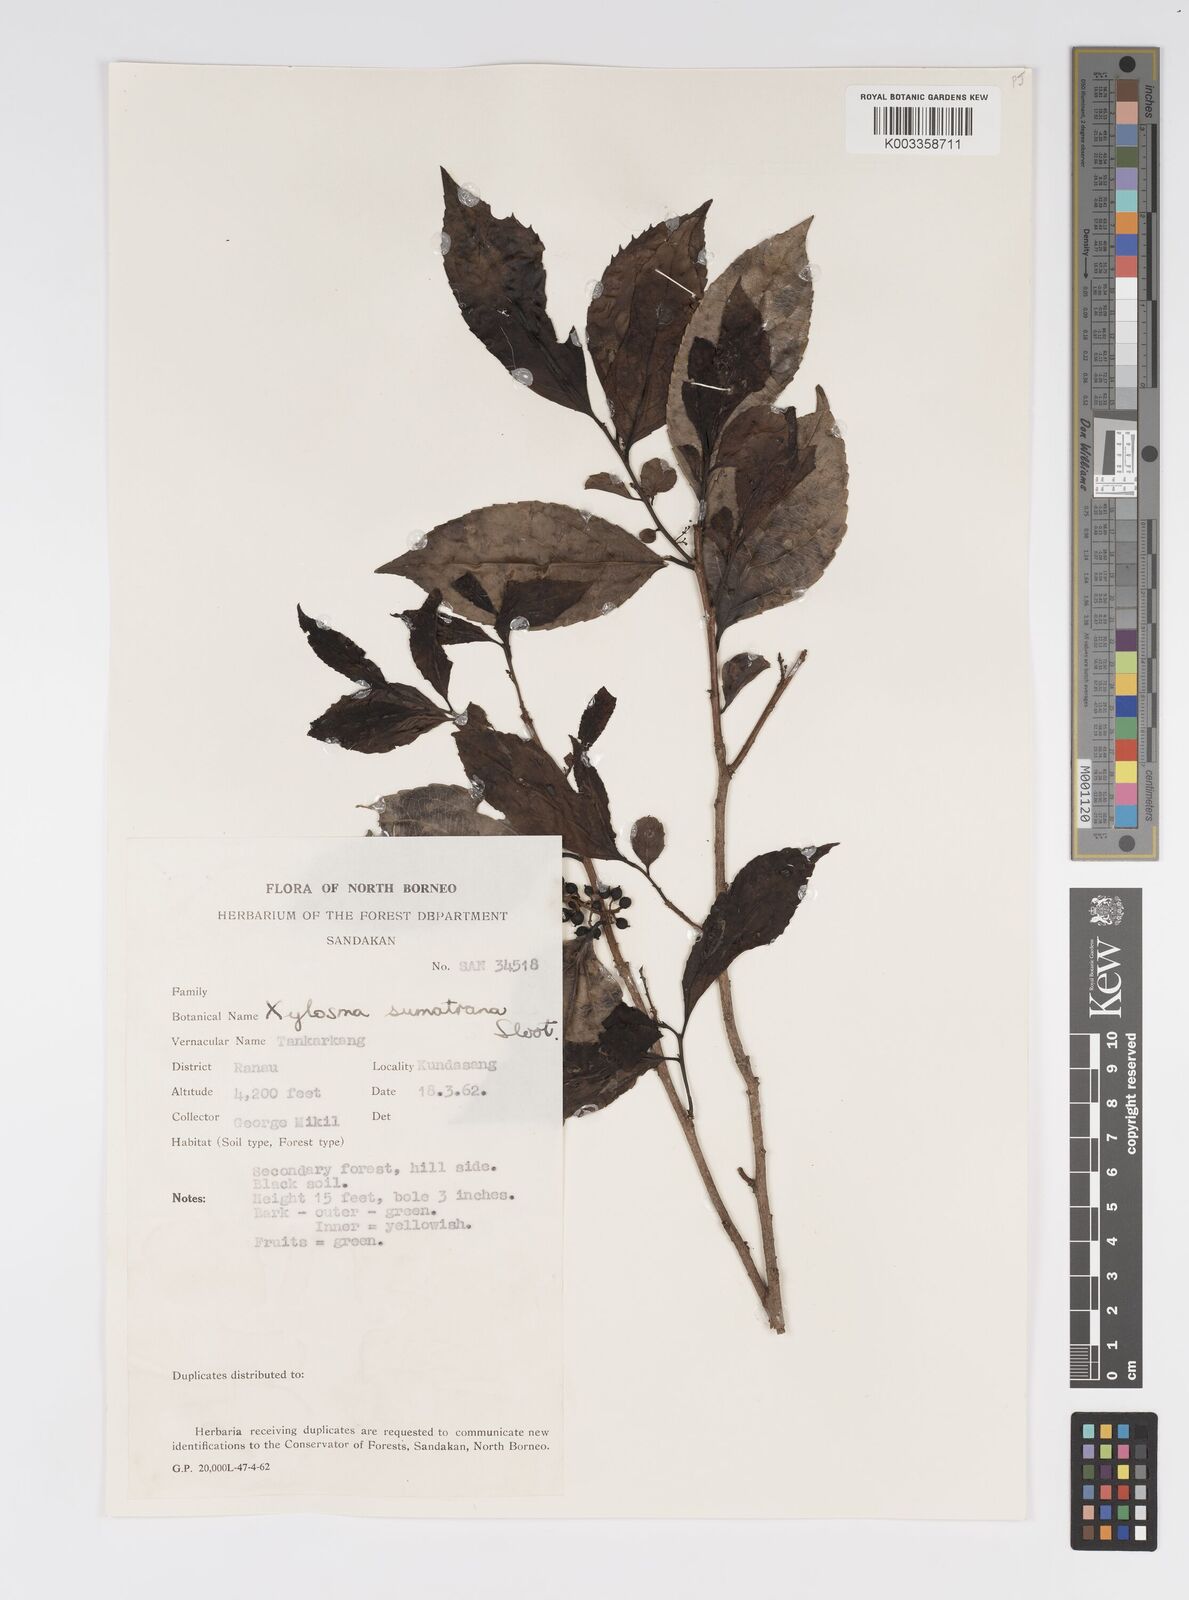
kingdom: Plantae
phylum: Tracheophyta
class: Magnoliopsida
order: Malpighiales
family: Salicaceae
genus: Xylosma
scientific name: Xylosma sumatrana
